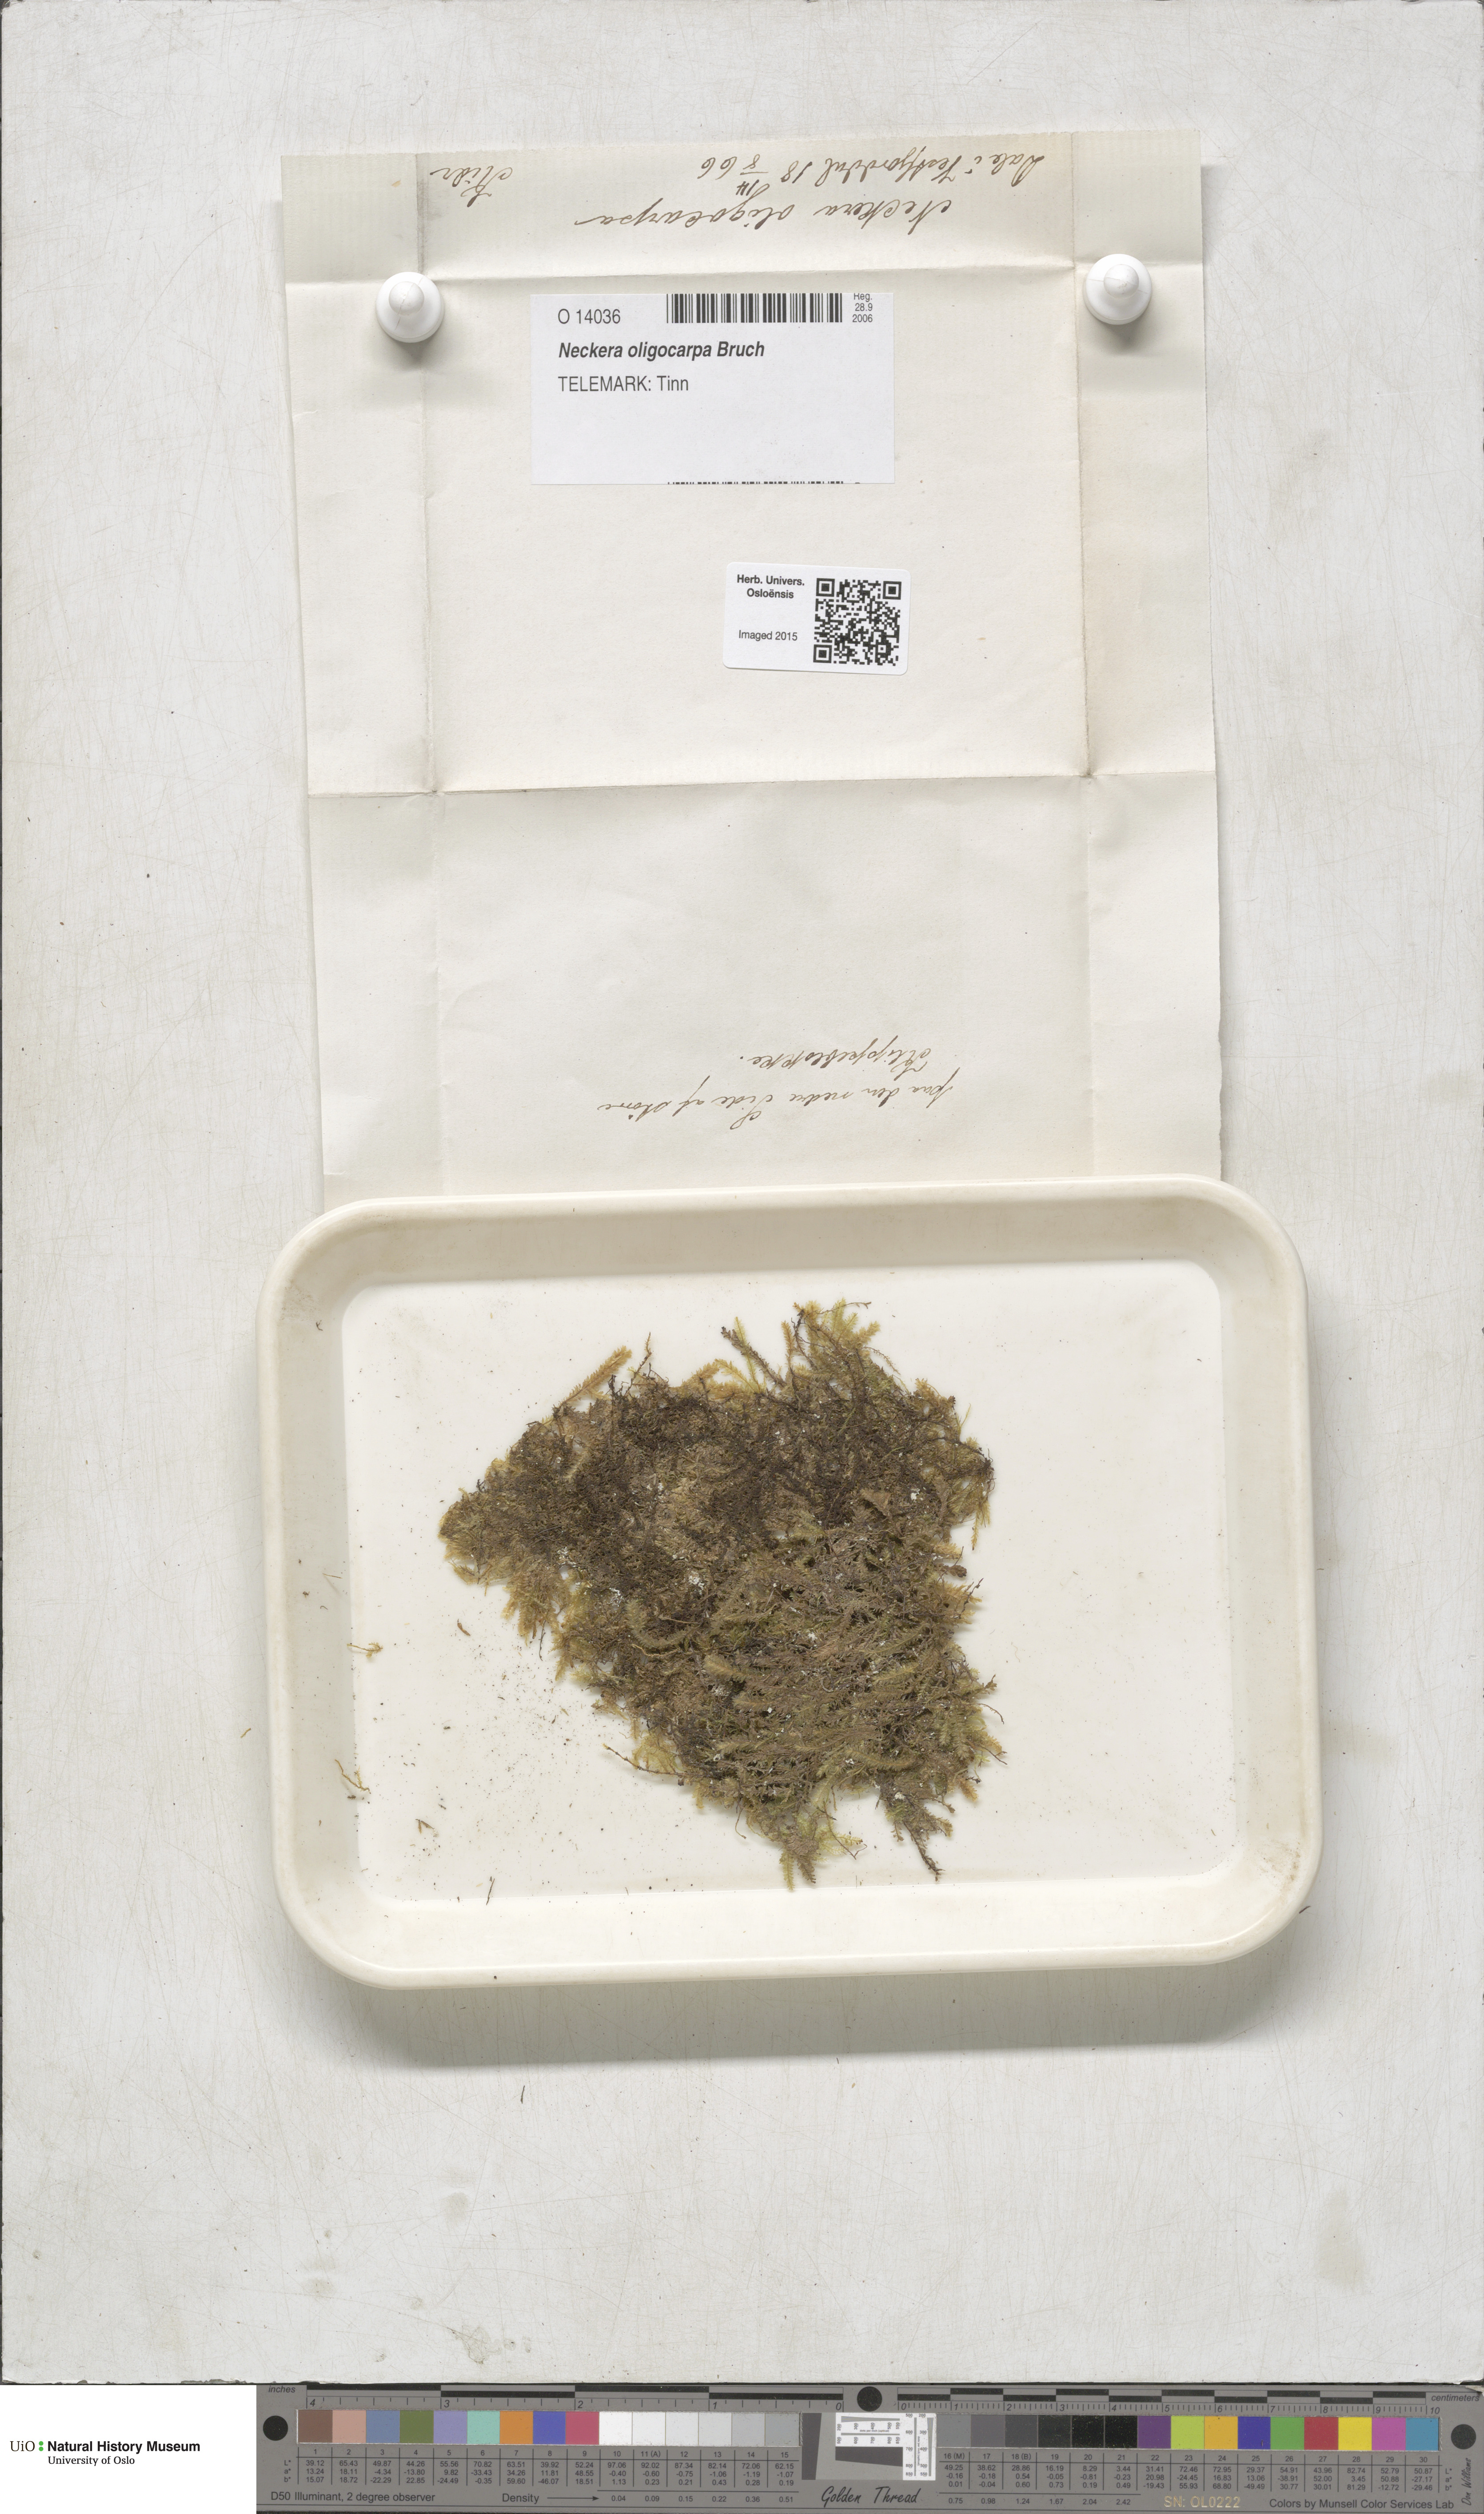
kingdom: Plantae
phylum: Bryophyta
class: Bryopsida
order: Hypnales
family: Neckeraceae
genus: Neckera
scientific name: Neckera oligocarpa
